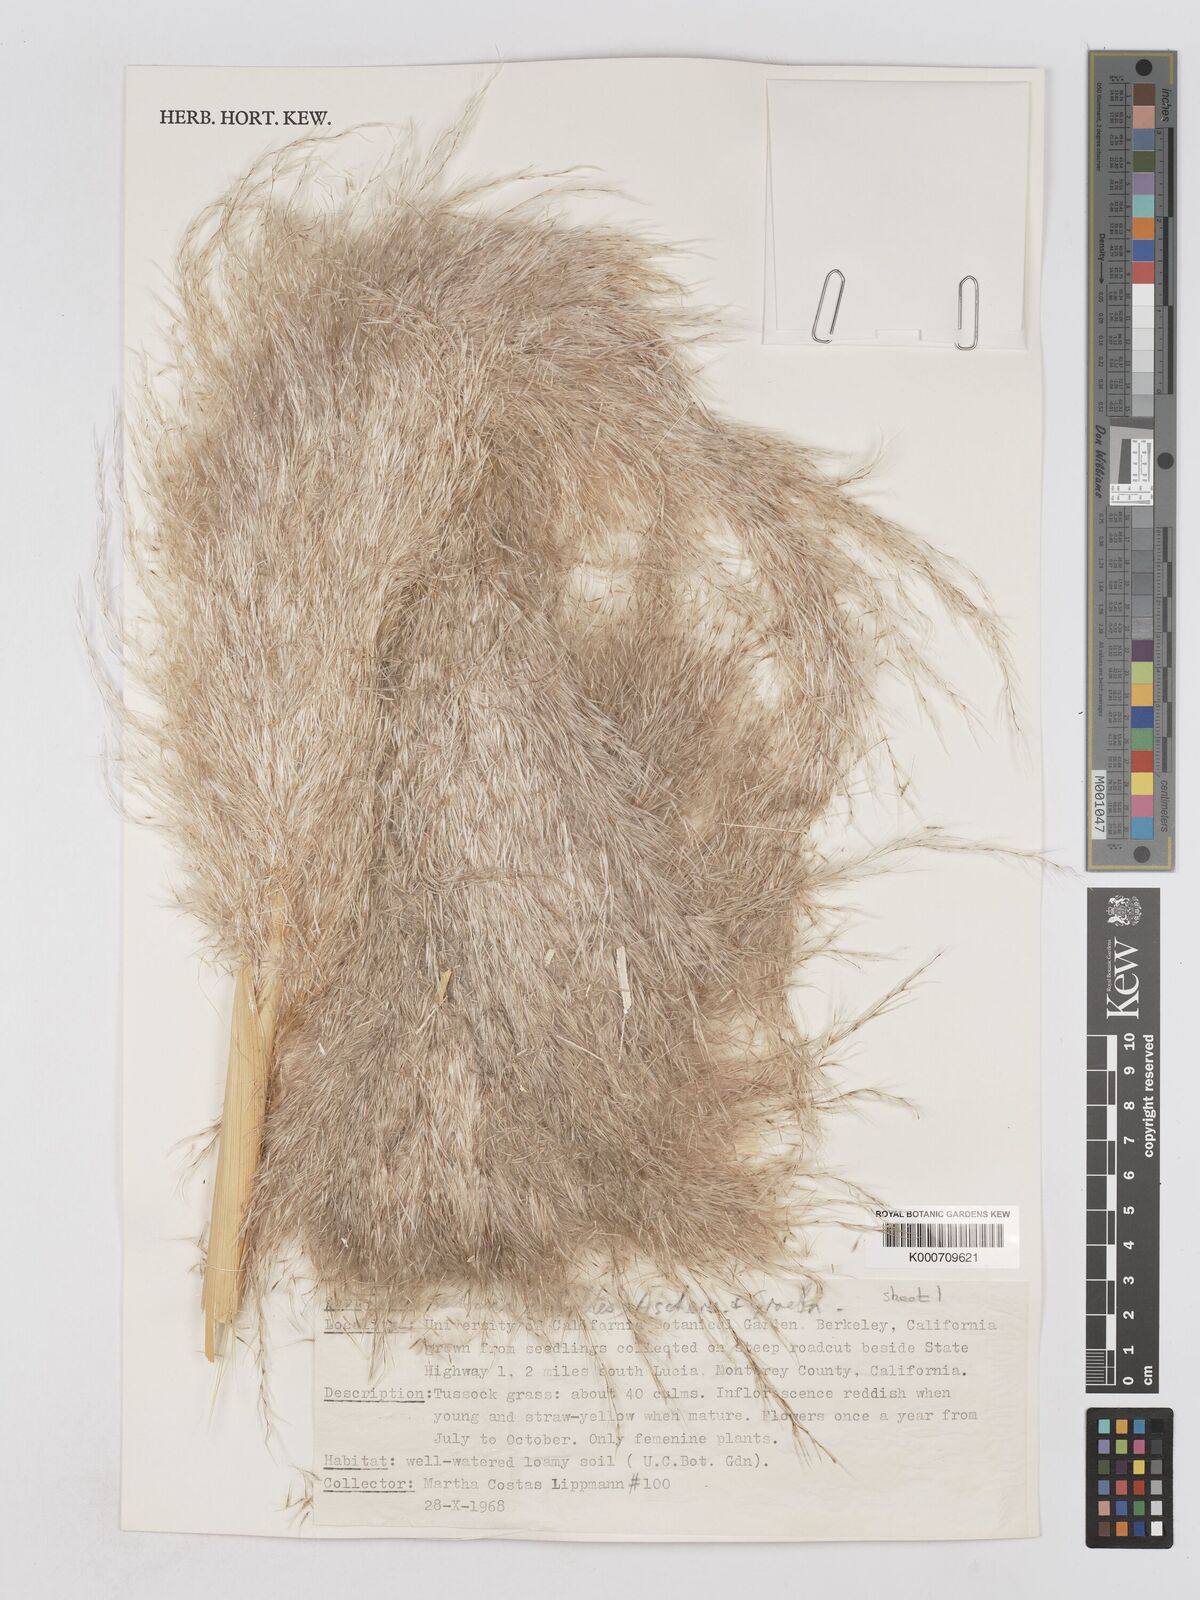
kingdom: Plantae
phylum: Tracheophyta
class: Liliopsida
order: Poales
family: Poaceae
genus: Cortaderia
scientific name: Cortaderia selloana
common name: Uruguayan pampas grass
